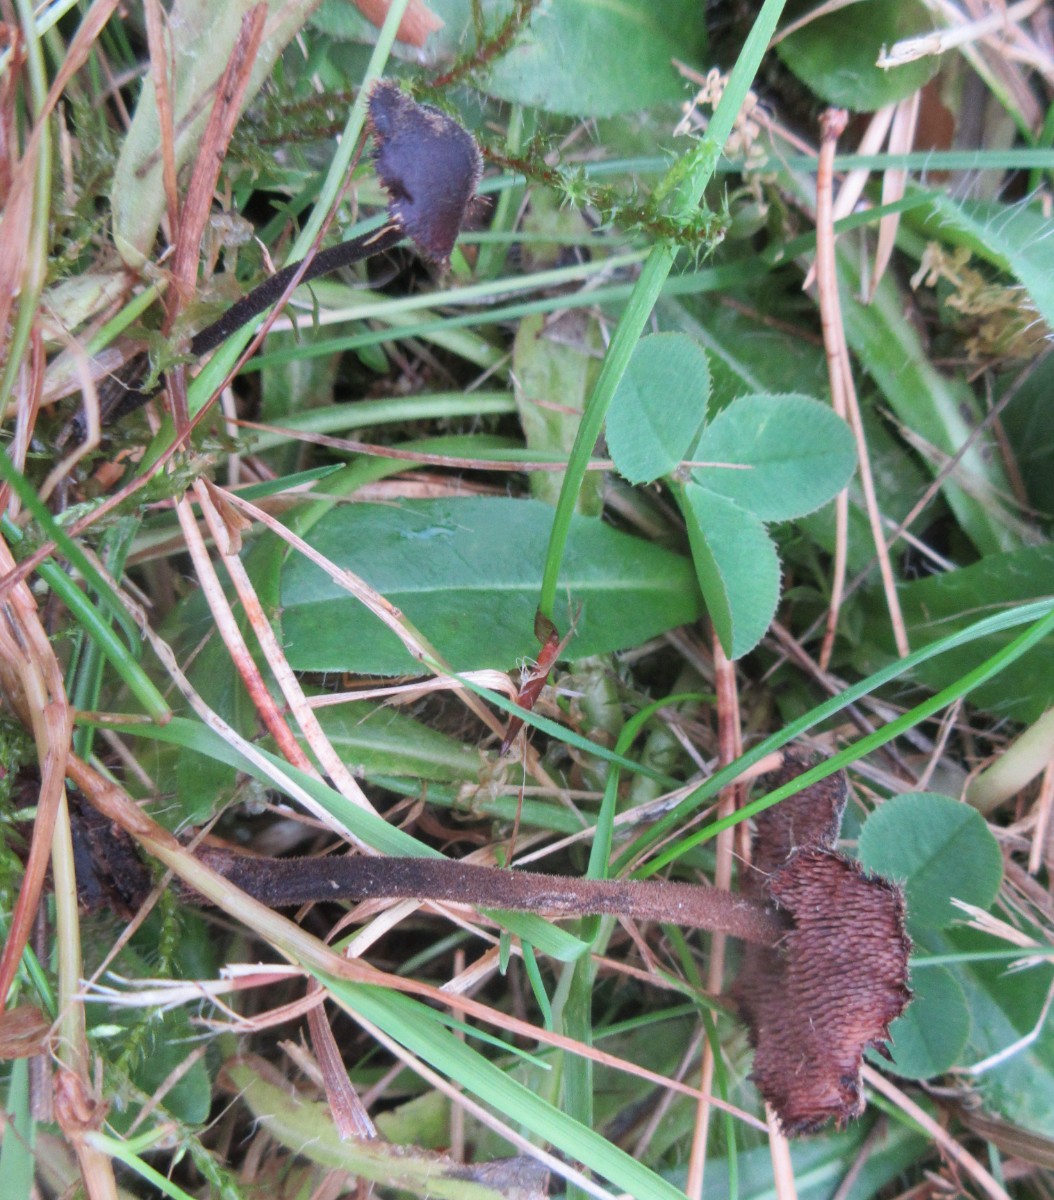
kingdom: Fungi
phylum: Basidiomycota
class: Agaricomycetes
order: Russulales
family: Auriscalpiaceae
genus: Auriscalpium
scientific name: Auriscalpium vulgare
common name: koglepigsvamp
